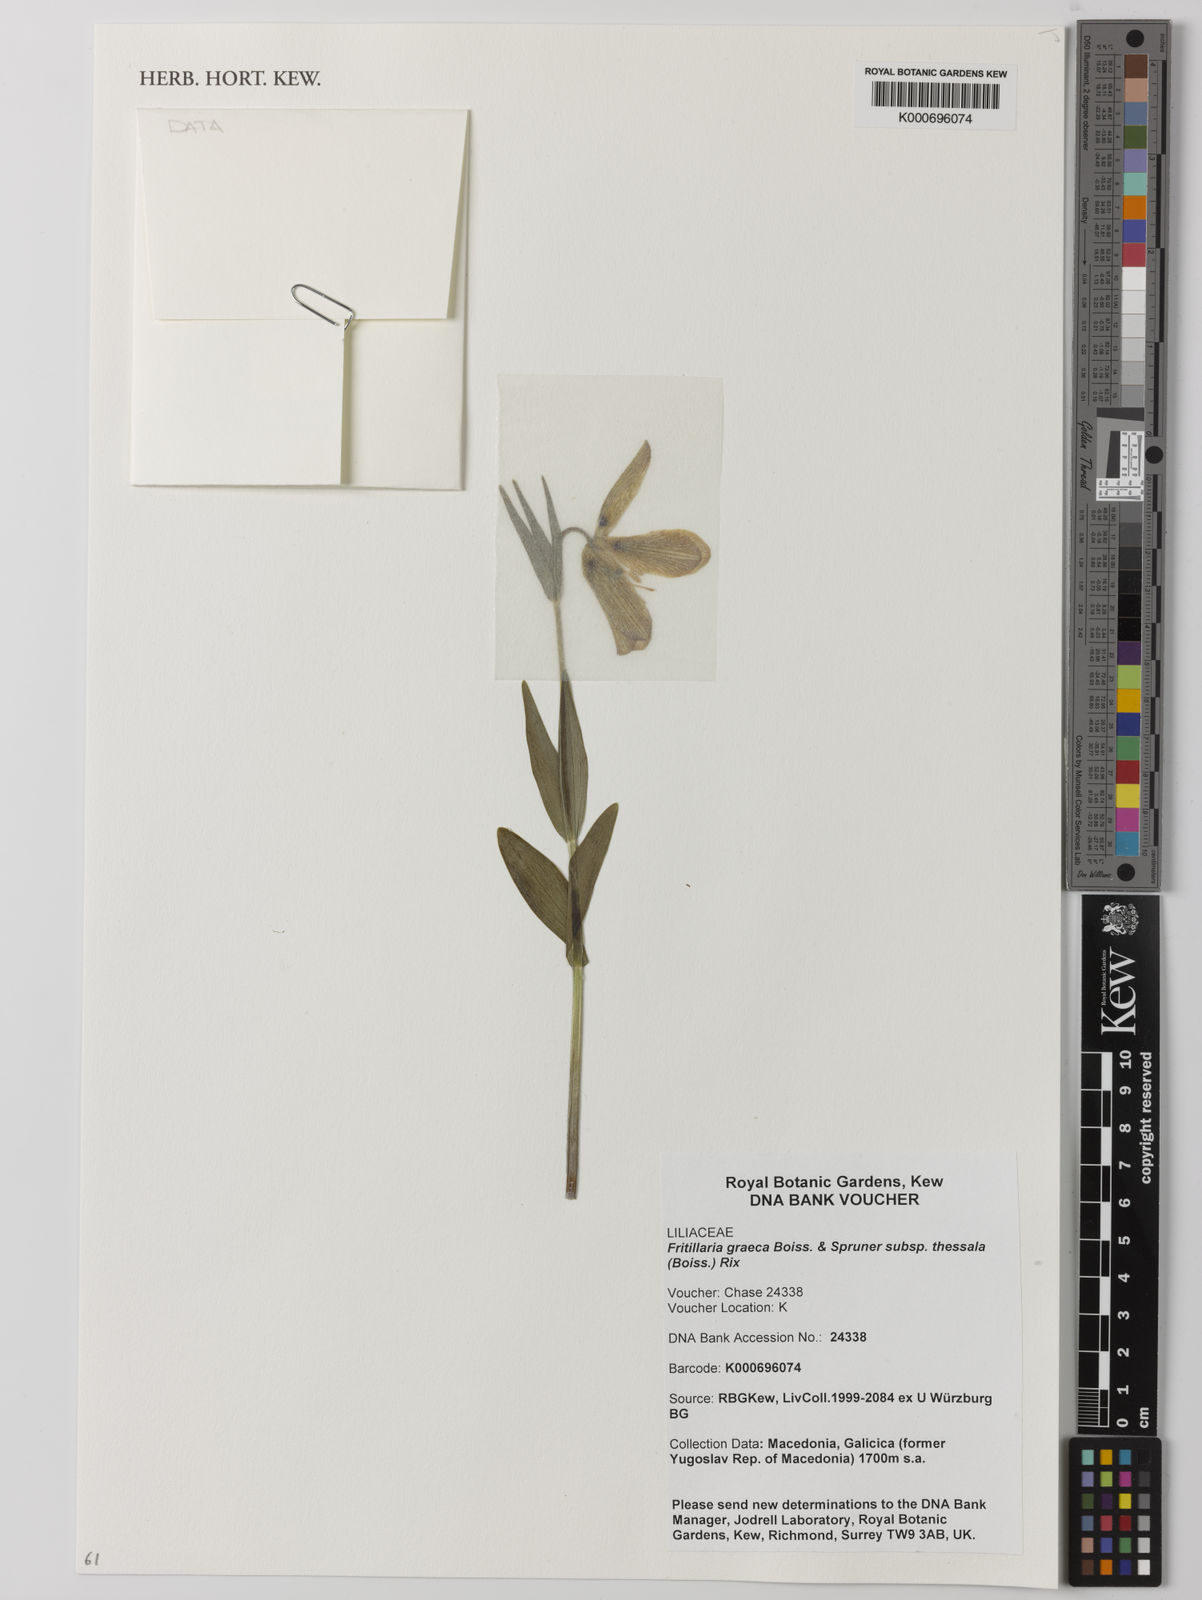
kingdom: Plantae
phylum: Tracheophyta
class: Liliopsida
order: Liliales
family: Liliaceae
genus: Fritillaria
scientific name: Fritillaria graeca
